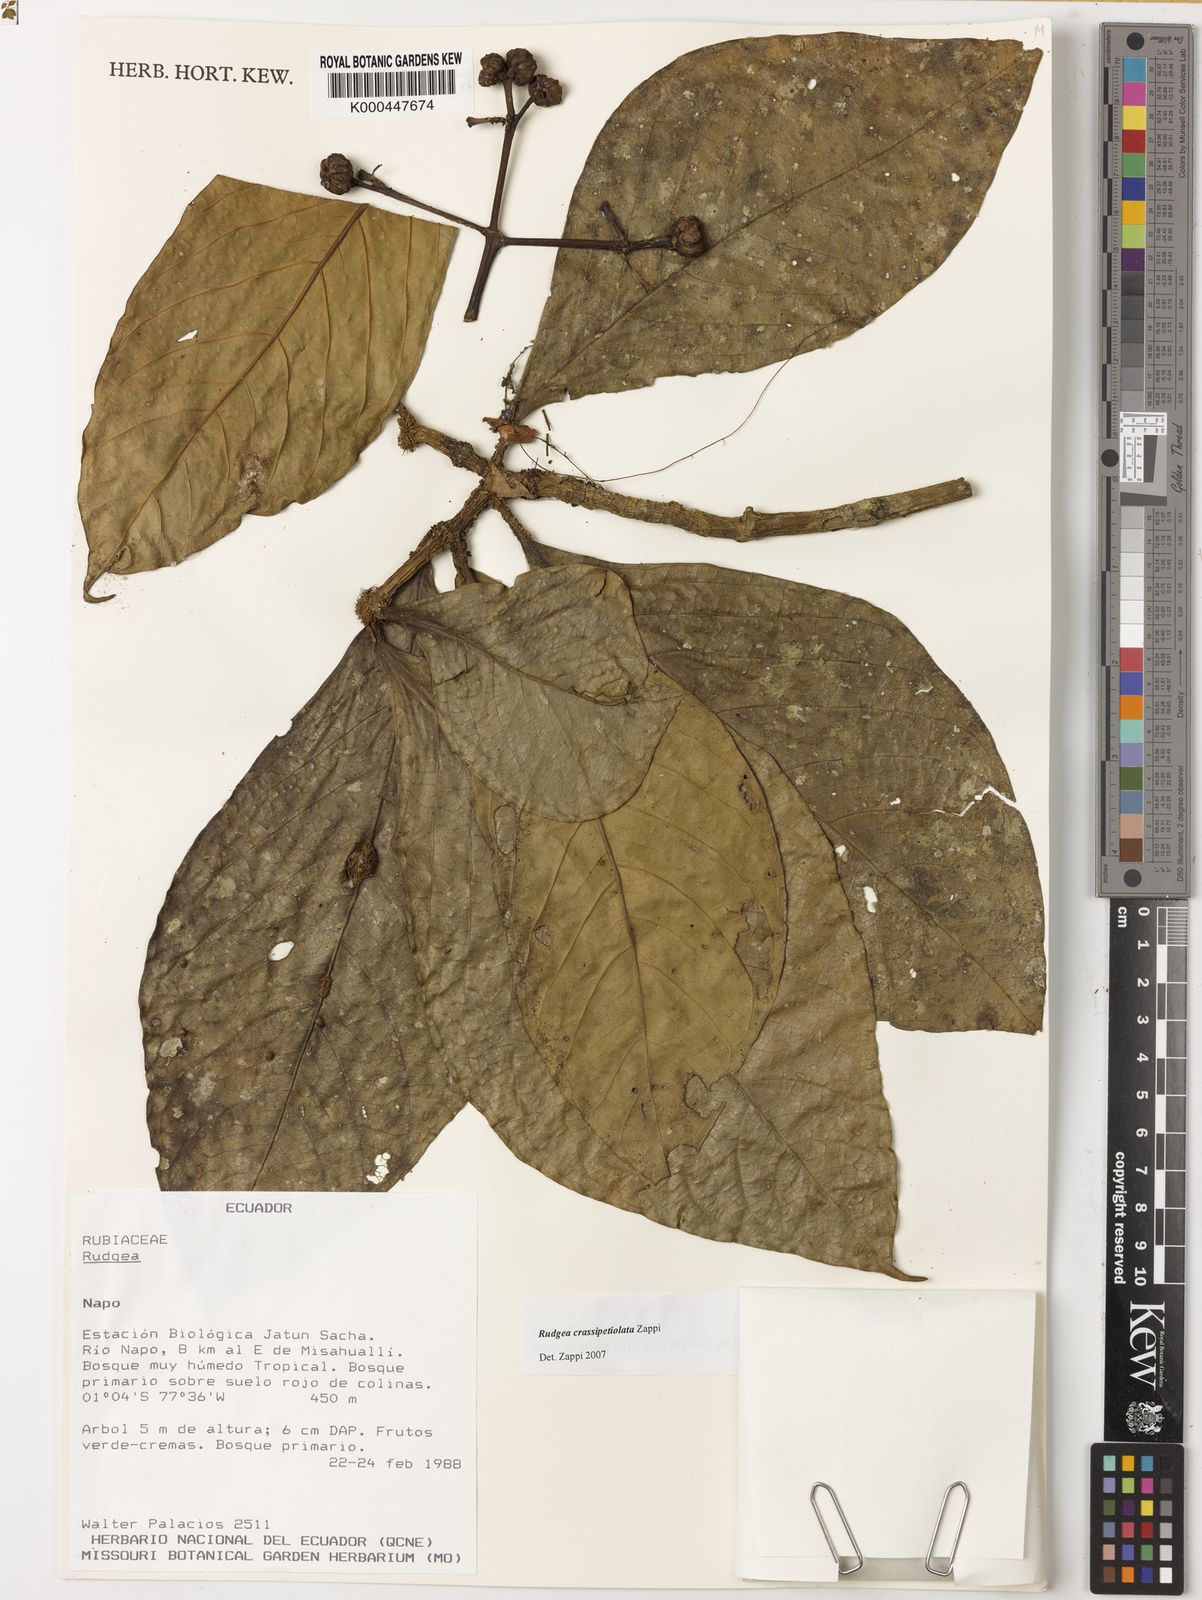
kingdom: Plantae
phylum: Tracheophyta
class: Magnoliopsida
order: Gentianales
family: Rubiaceae
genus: Rudgea
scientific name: Rudgea crassipetiolata
